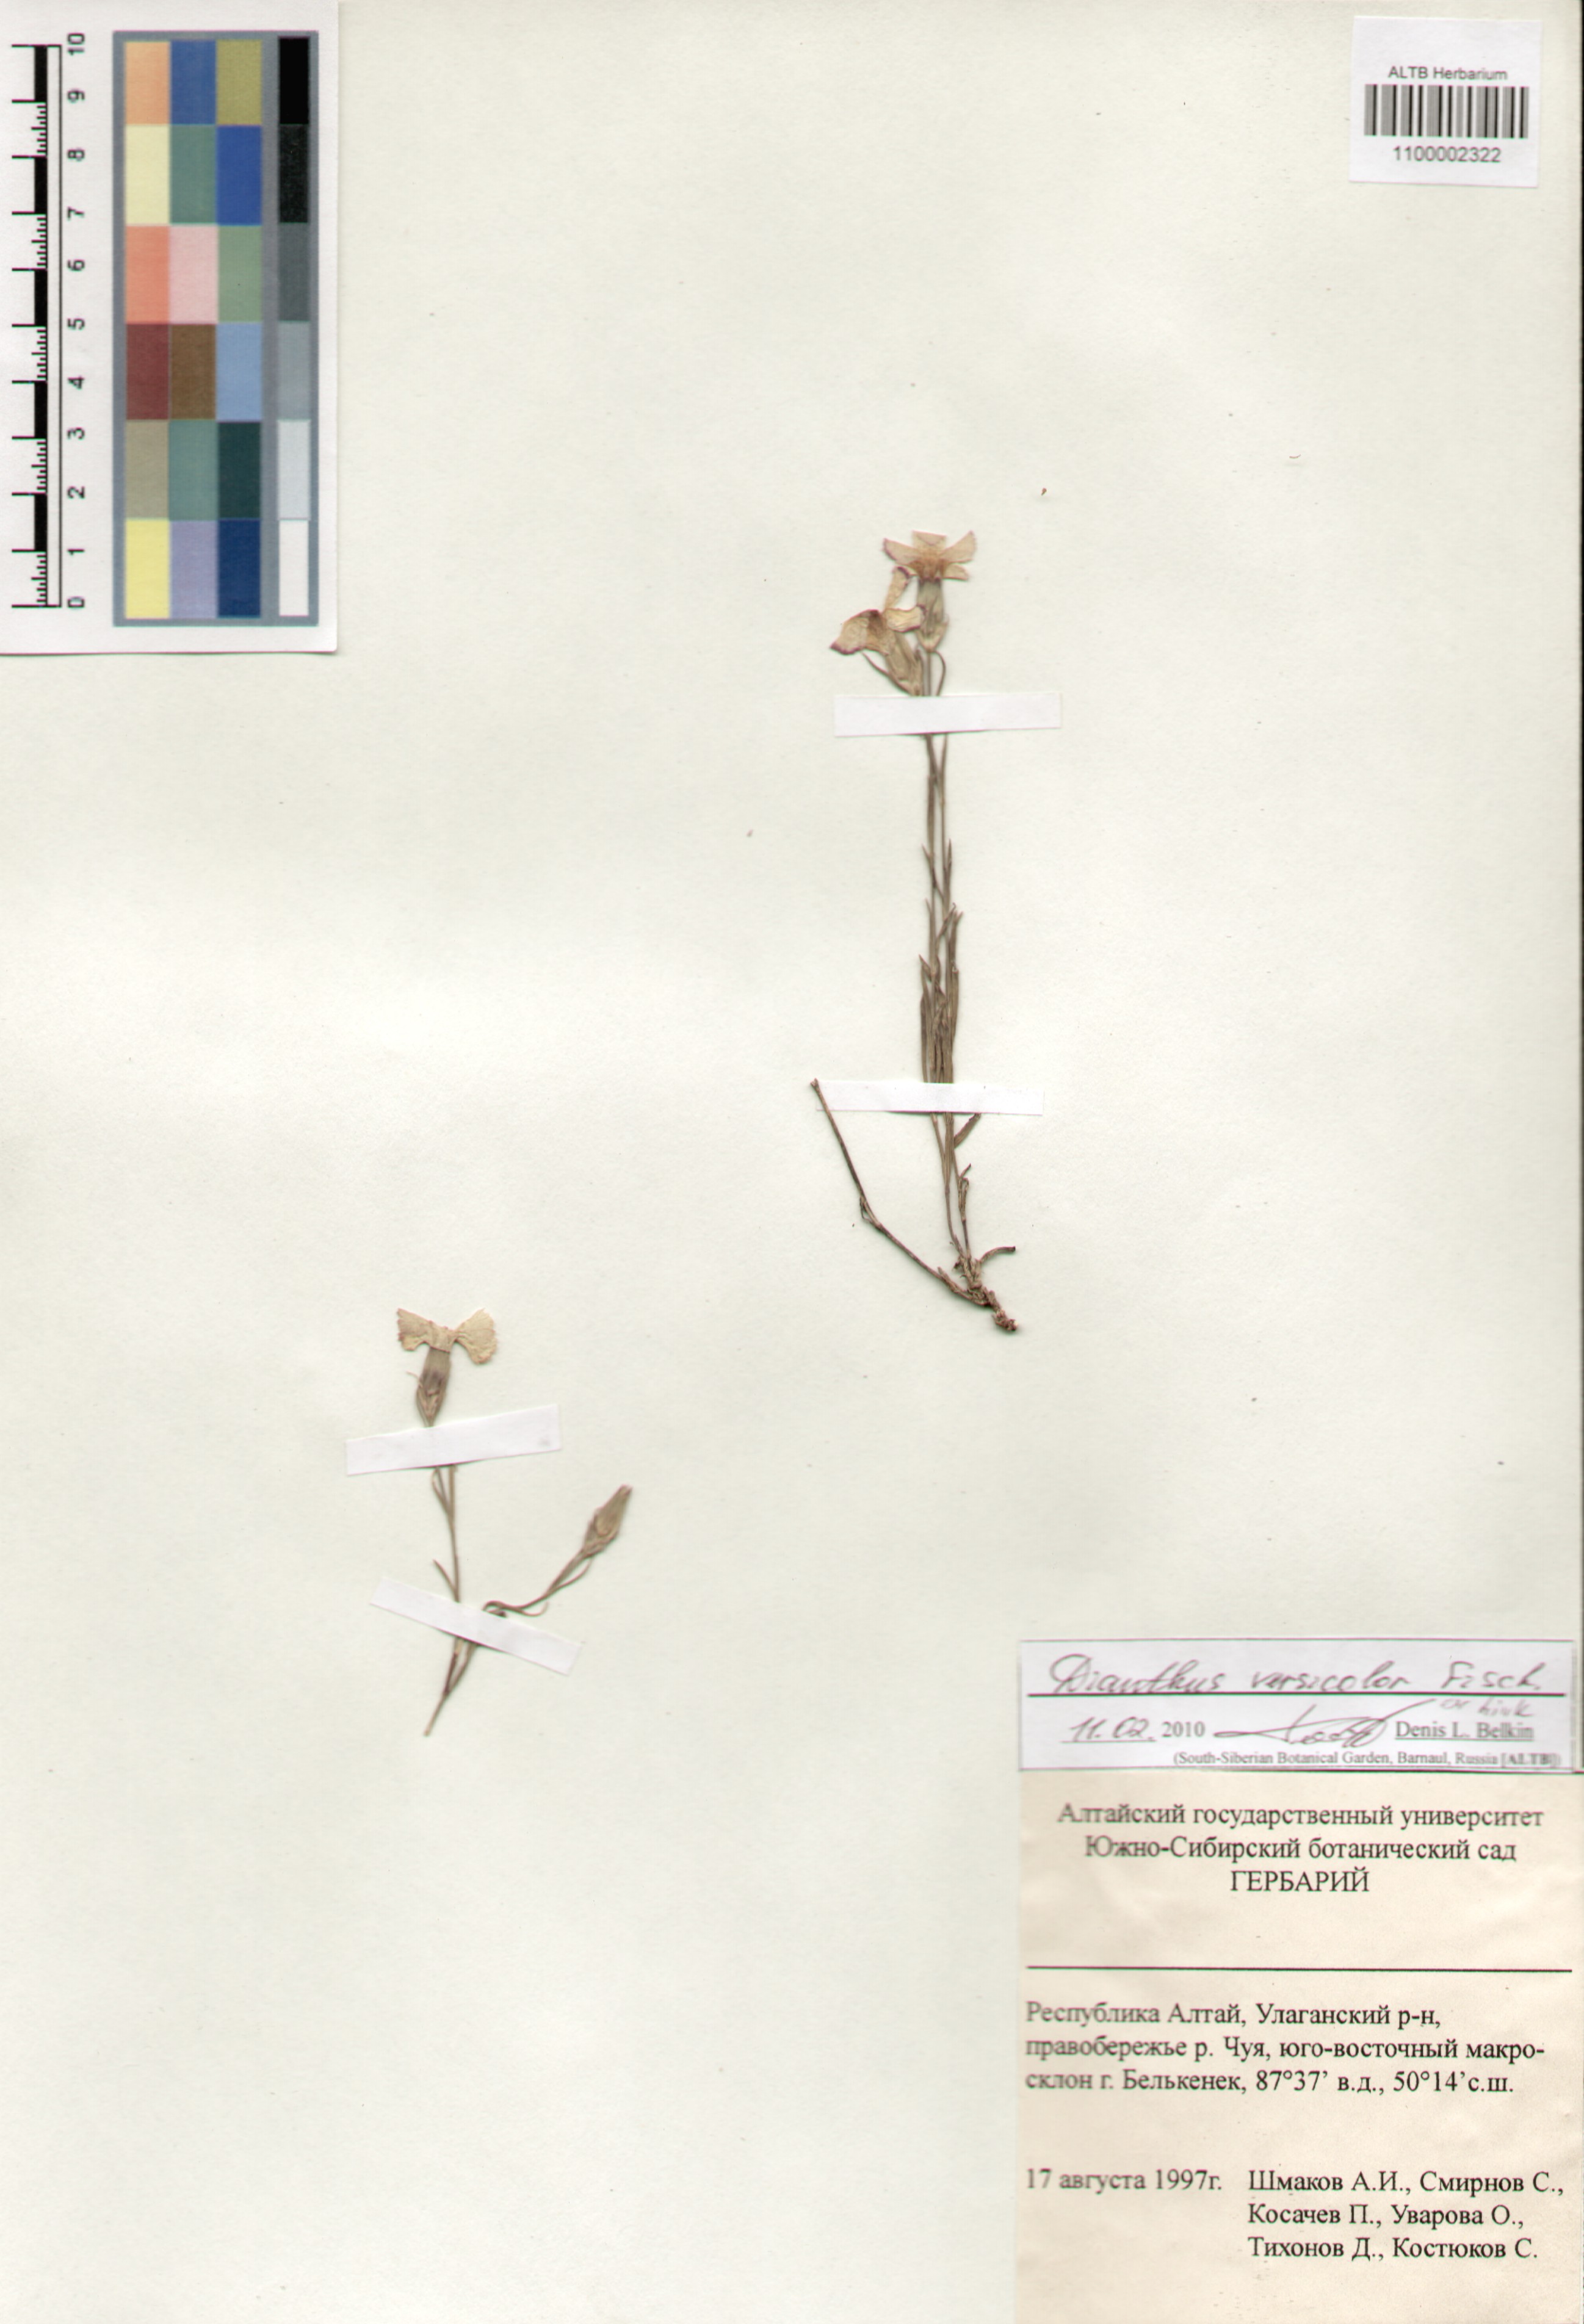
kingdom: Plantae
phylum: Tracheophyta
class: Magnoliopsida
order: Caryophyllales
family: Caryophyllaceae
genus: Dianthus
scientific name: Dianthus chinensis
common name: Rainbow pink
